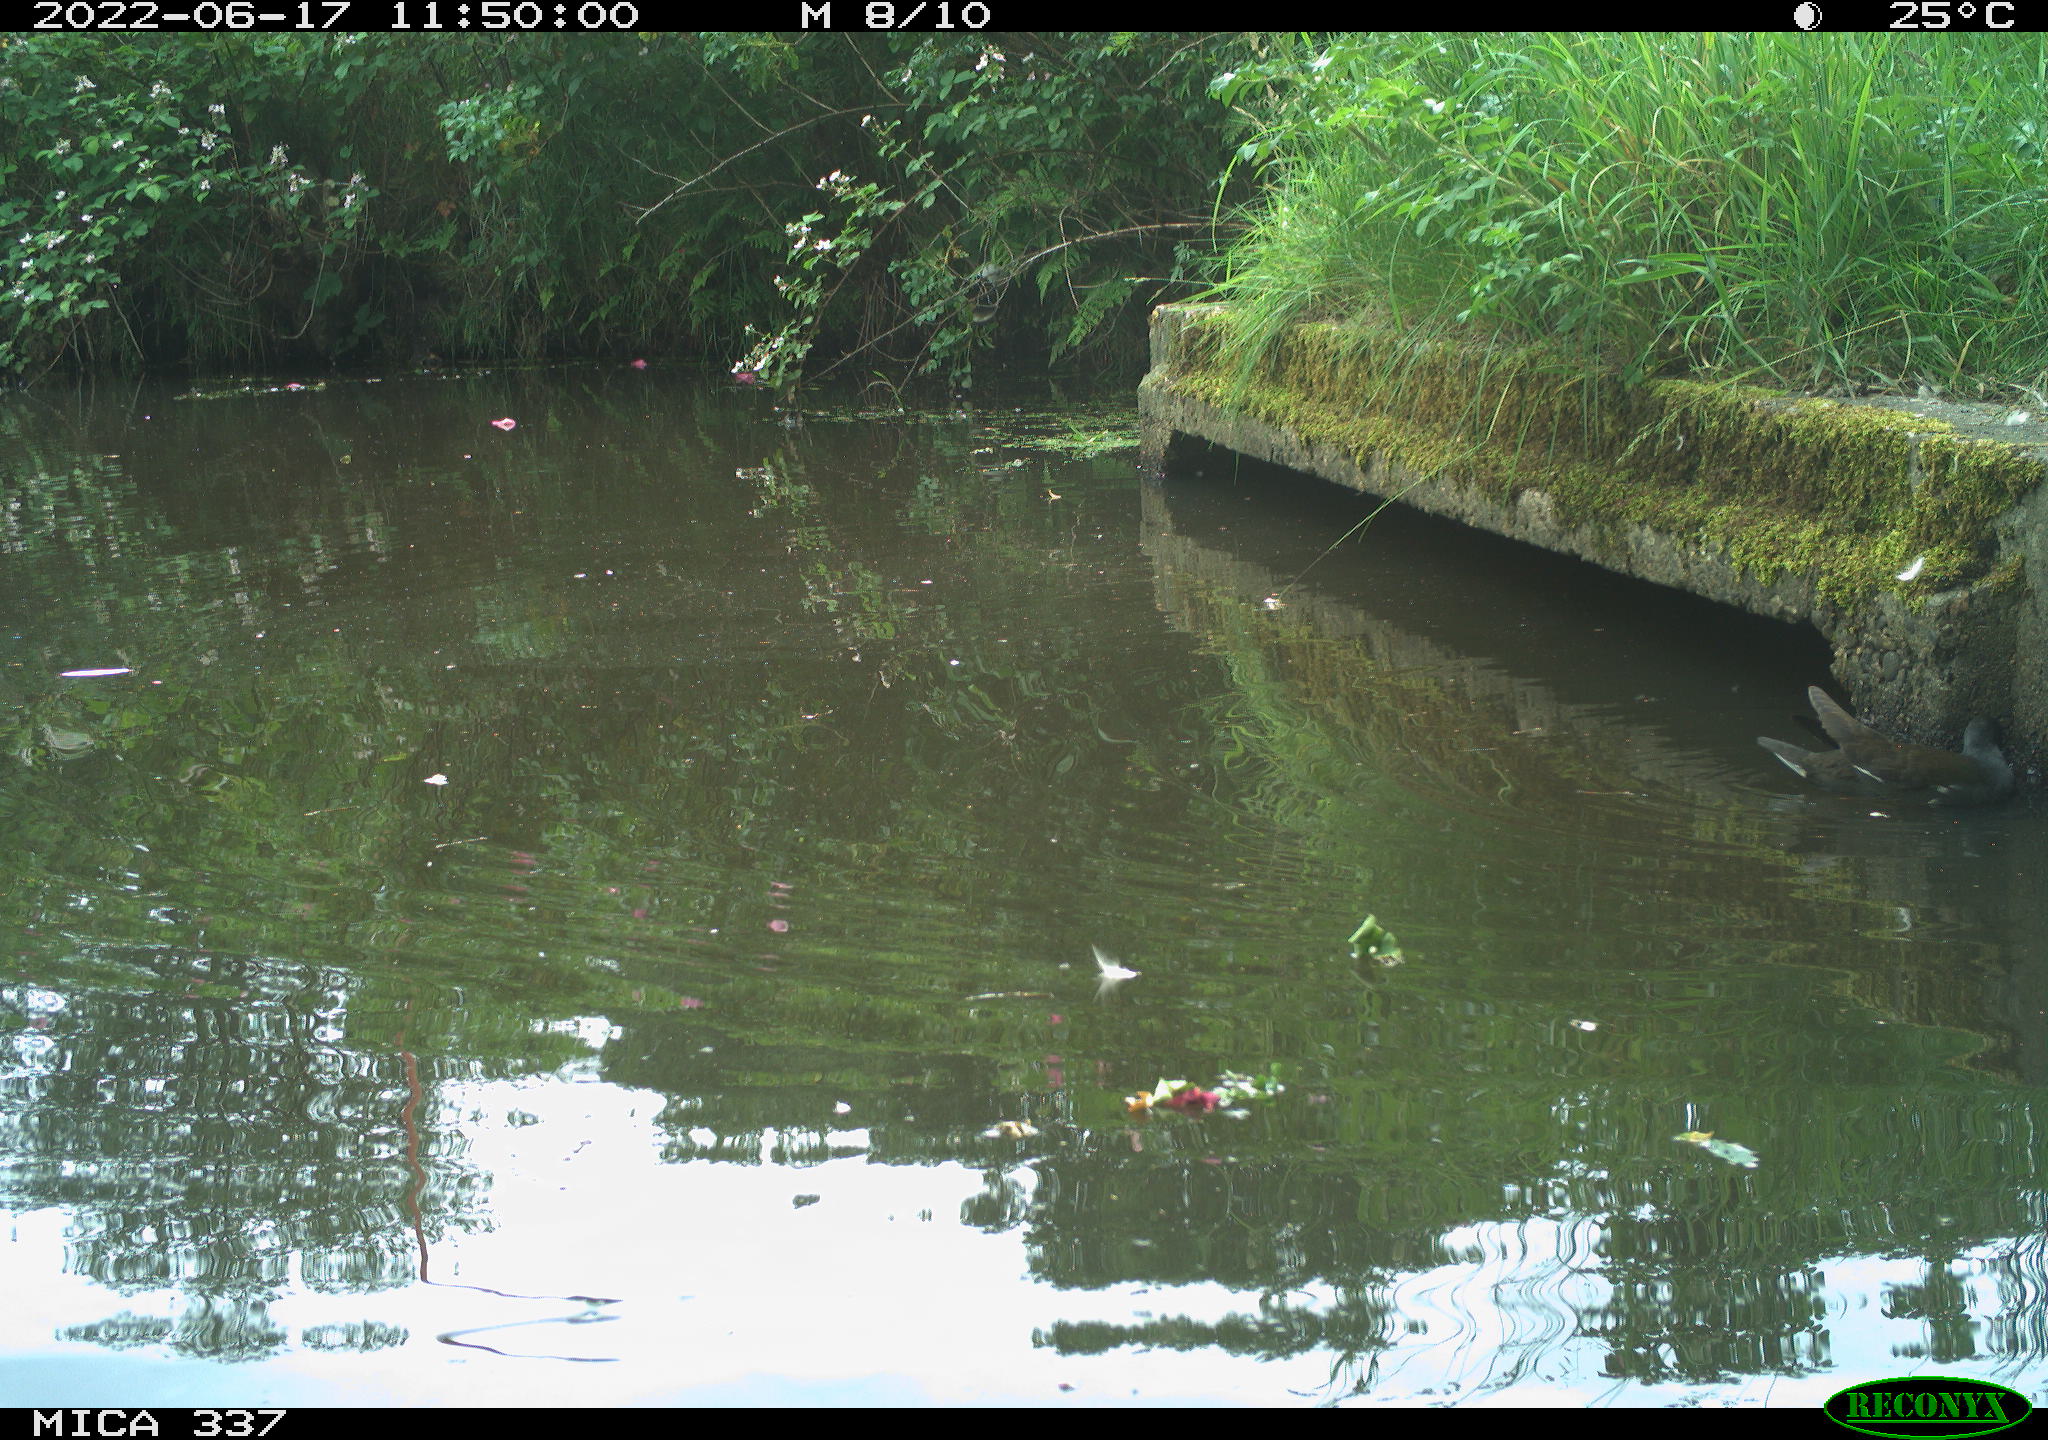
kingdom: Animalia
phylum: Chordata
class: Aves
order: Gruiformes
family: Rallidae
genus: Gallinula
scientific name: Gallinula chloropus
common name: Common moorhen
